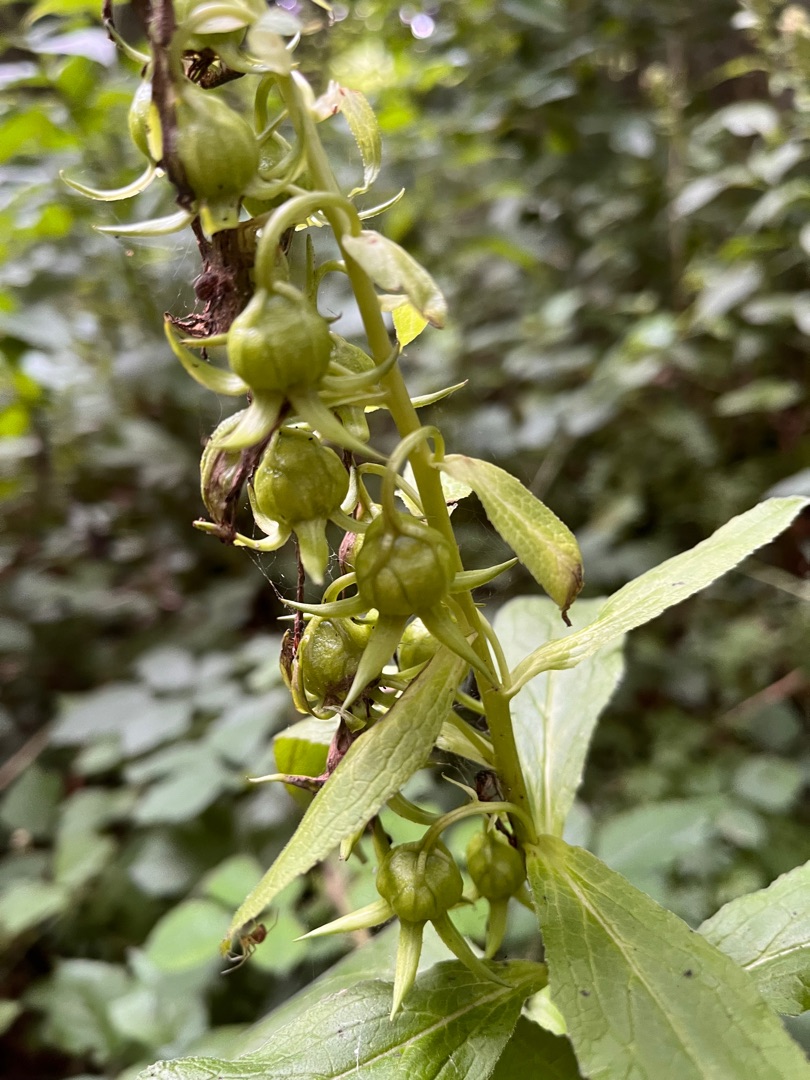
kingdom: Plantae
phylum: Tracheophyta
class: Magnoliopsida
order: Asterales
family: Campanulaceae
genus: Campanula
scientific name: Campanula latifolia
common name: Bredbladet klokke
